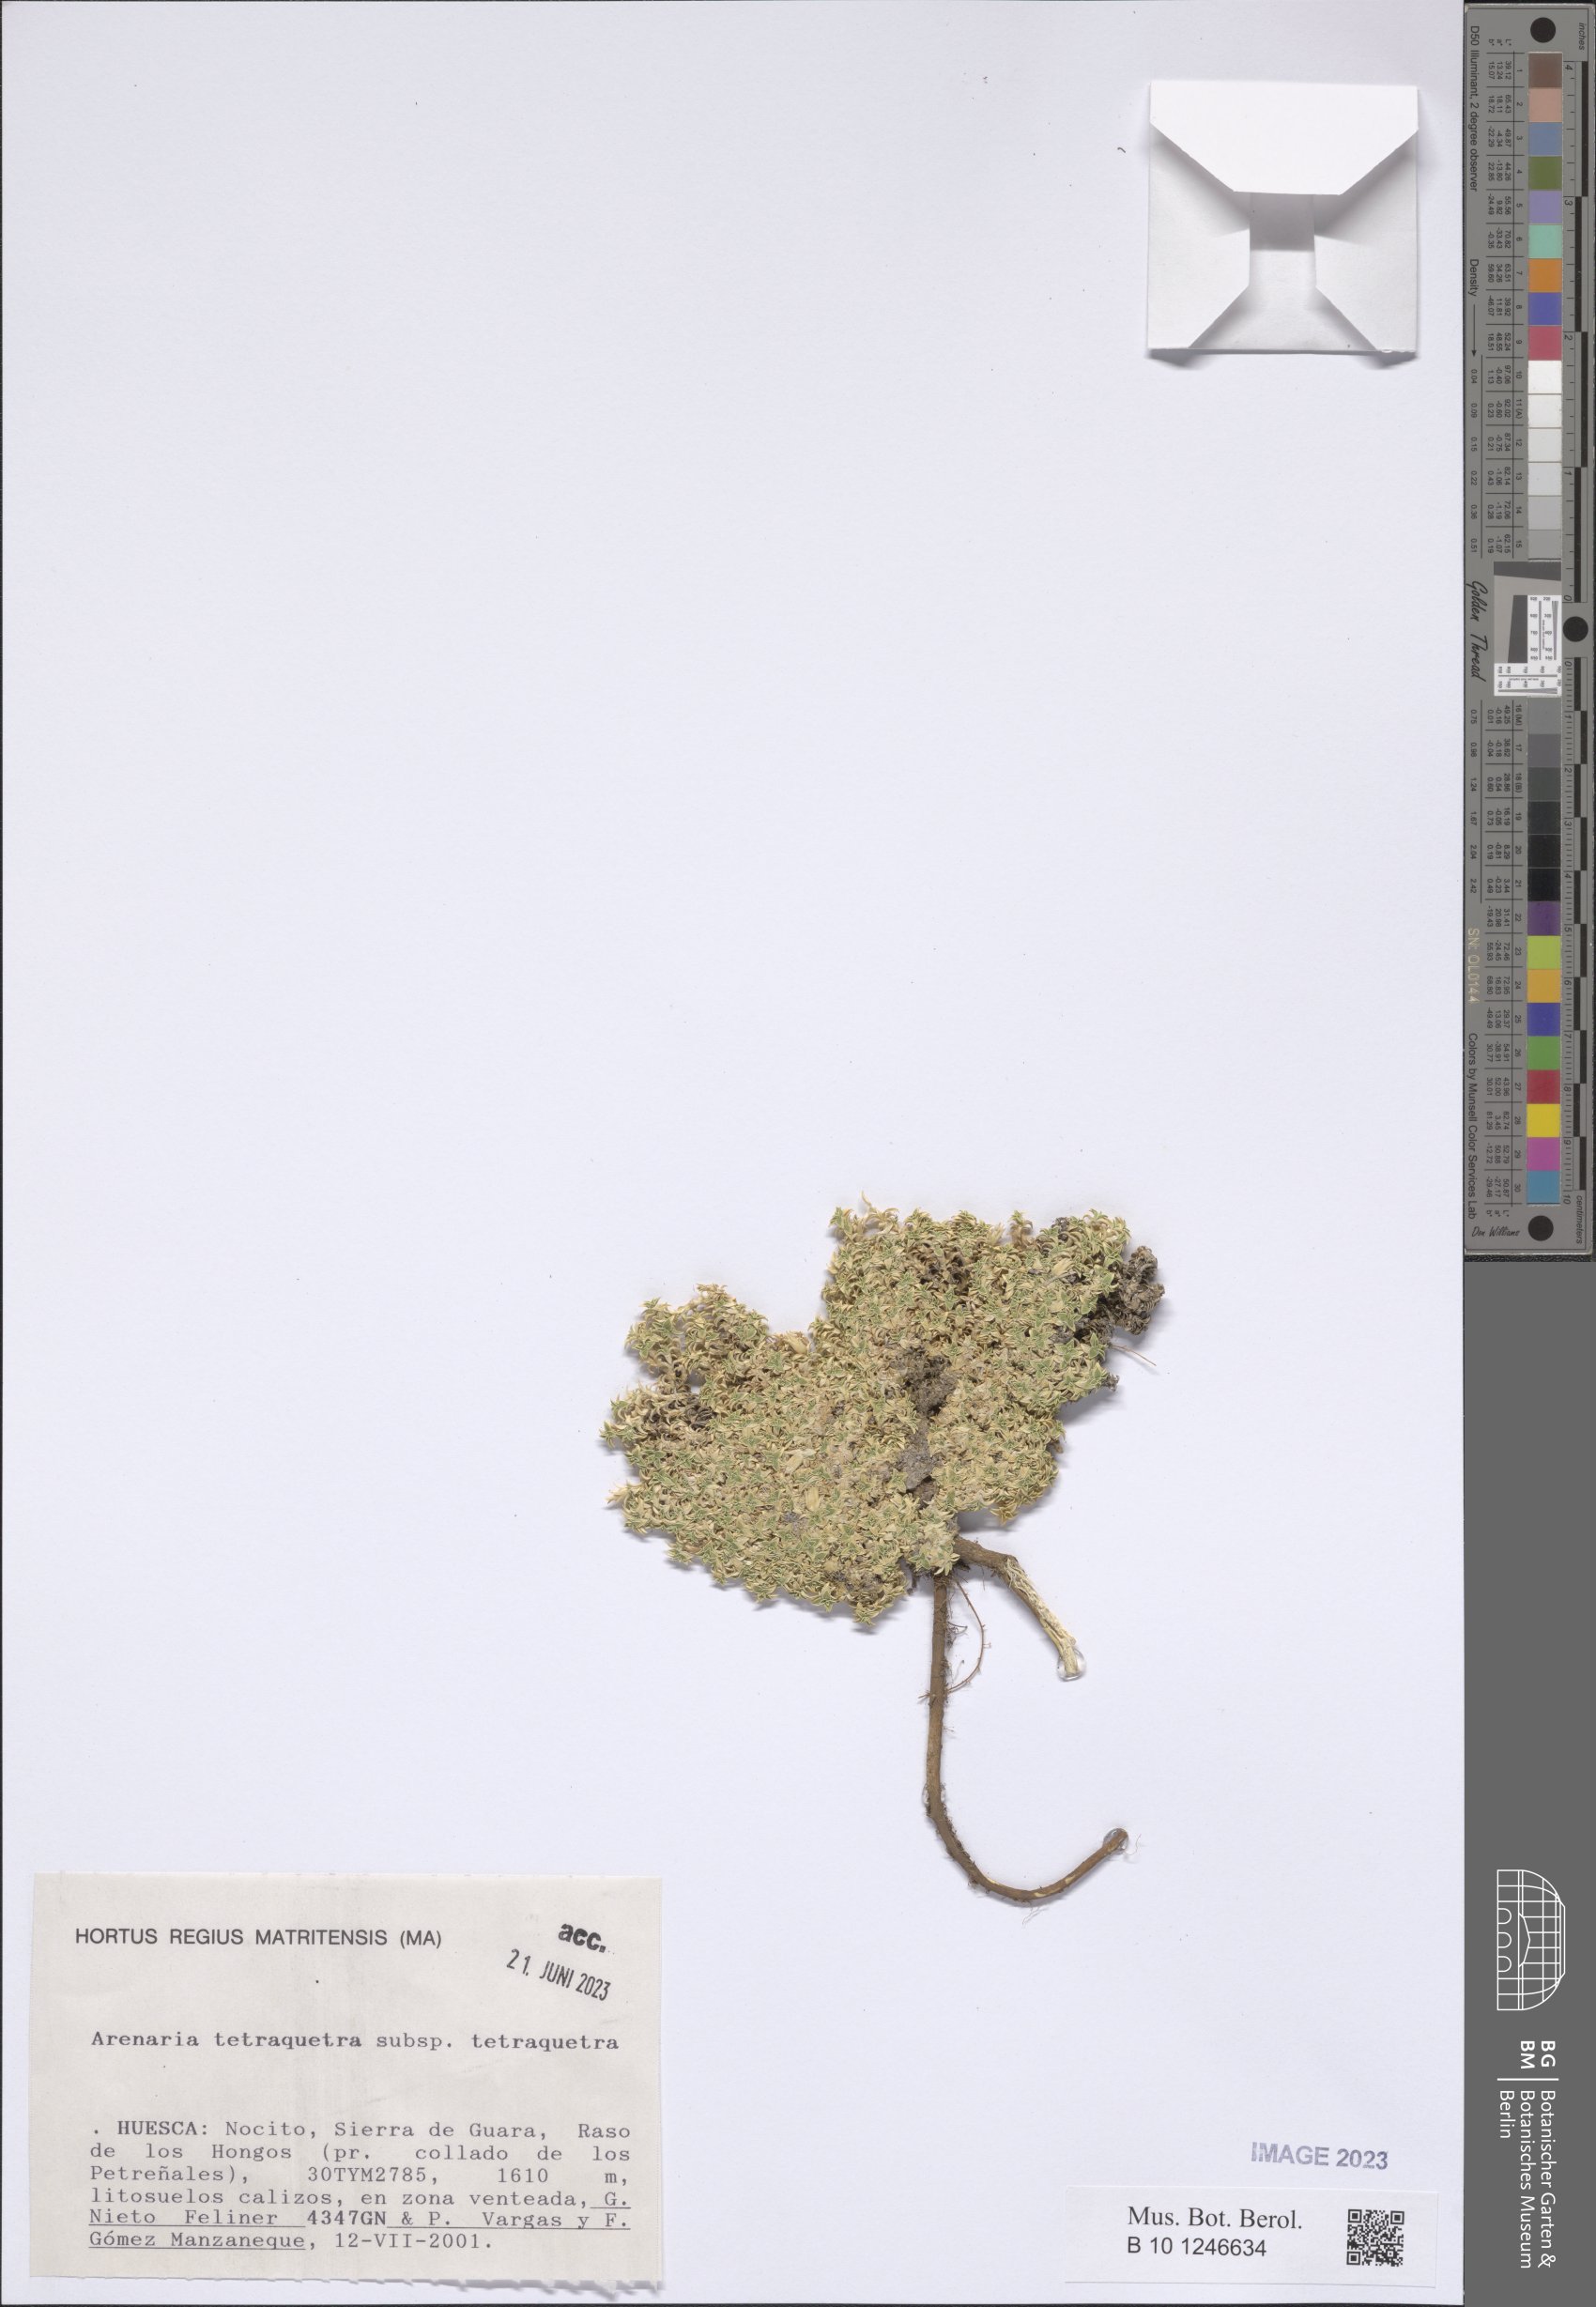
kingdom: Plantae
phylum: Tracheophyta
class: Magnoliopsida
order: Caryophyllales
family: Caryophyllaceae
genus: Arenaria
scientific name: Arenaria tetraquetra
